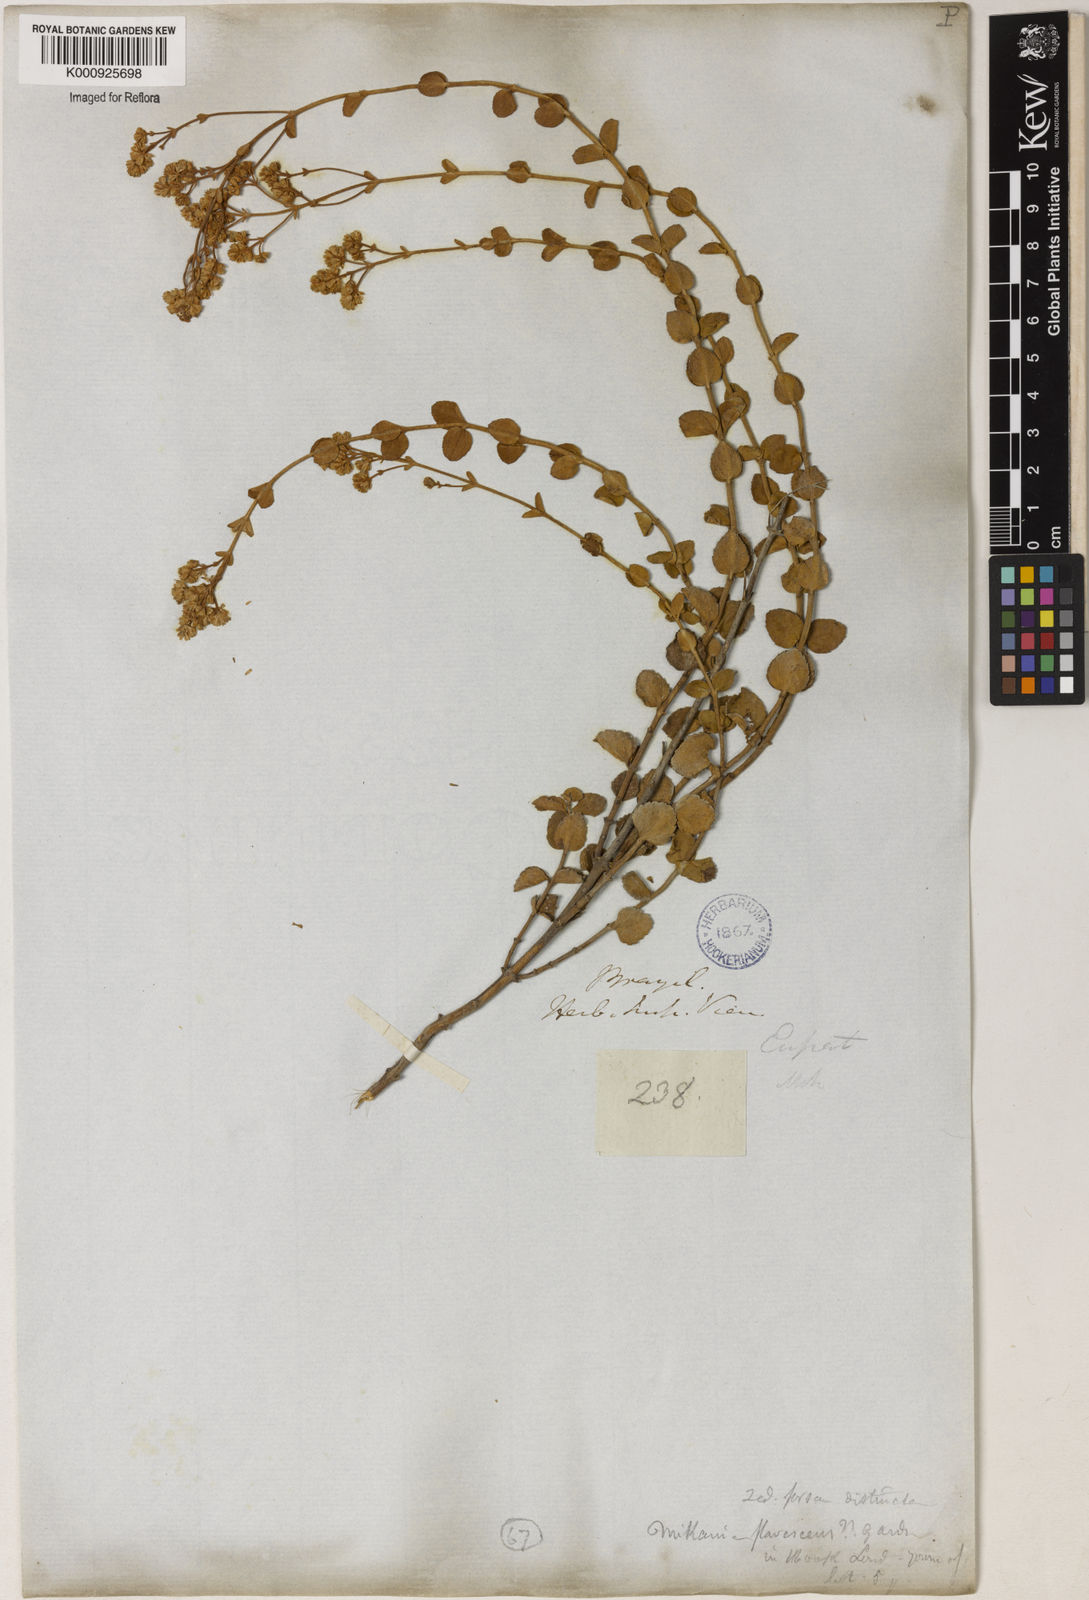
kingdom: Plantae
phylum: Tracheophyta
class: Magnoliopsida
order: Asterales
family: Asteraceae
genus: Mikania
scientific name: Mikania nummularia
